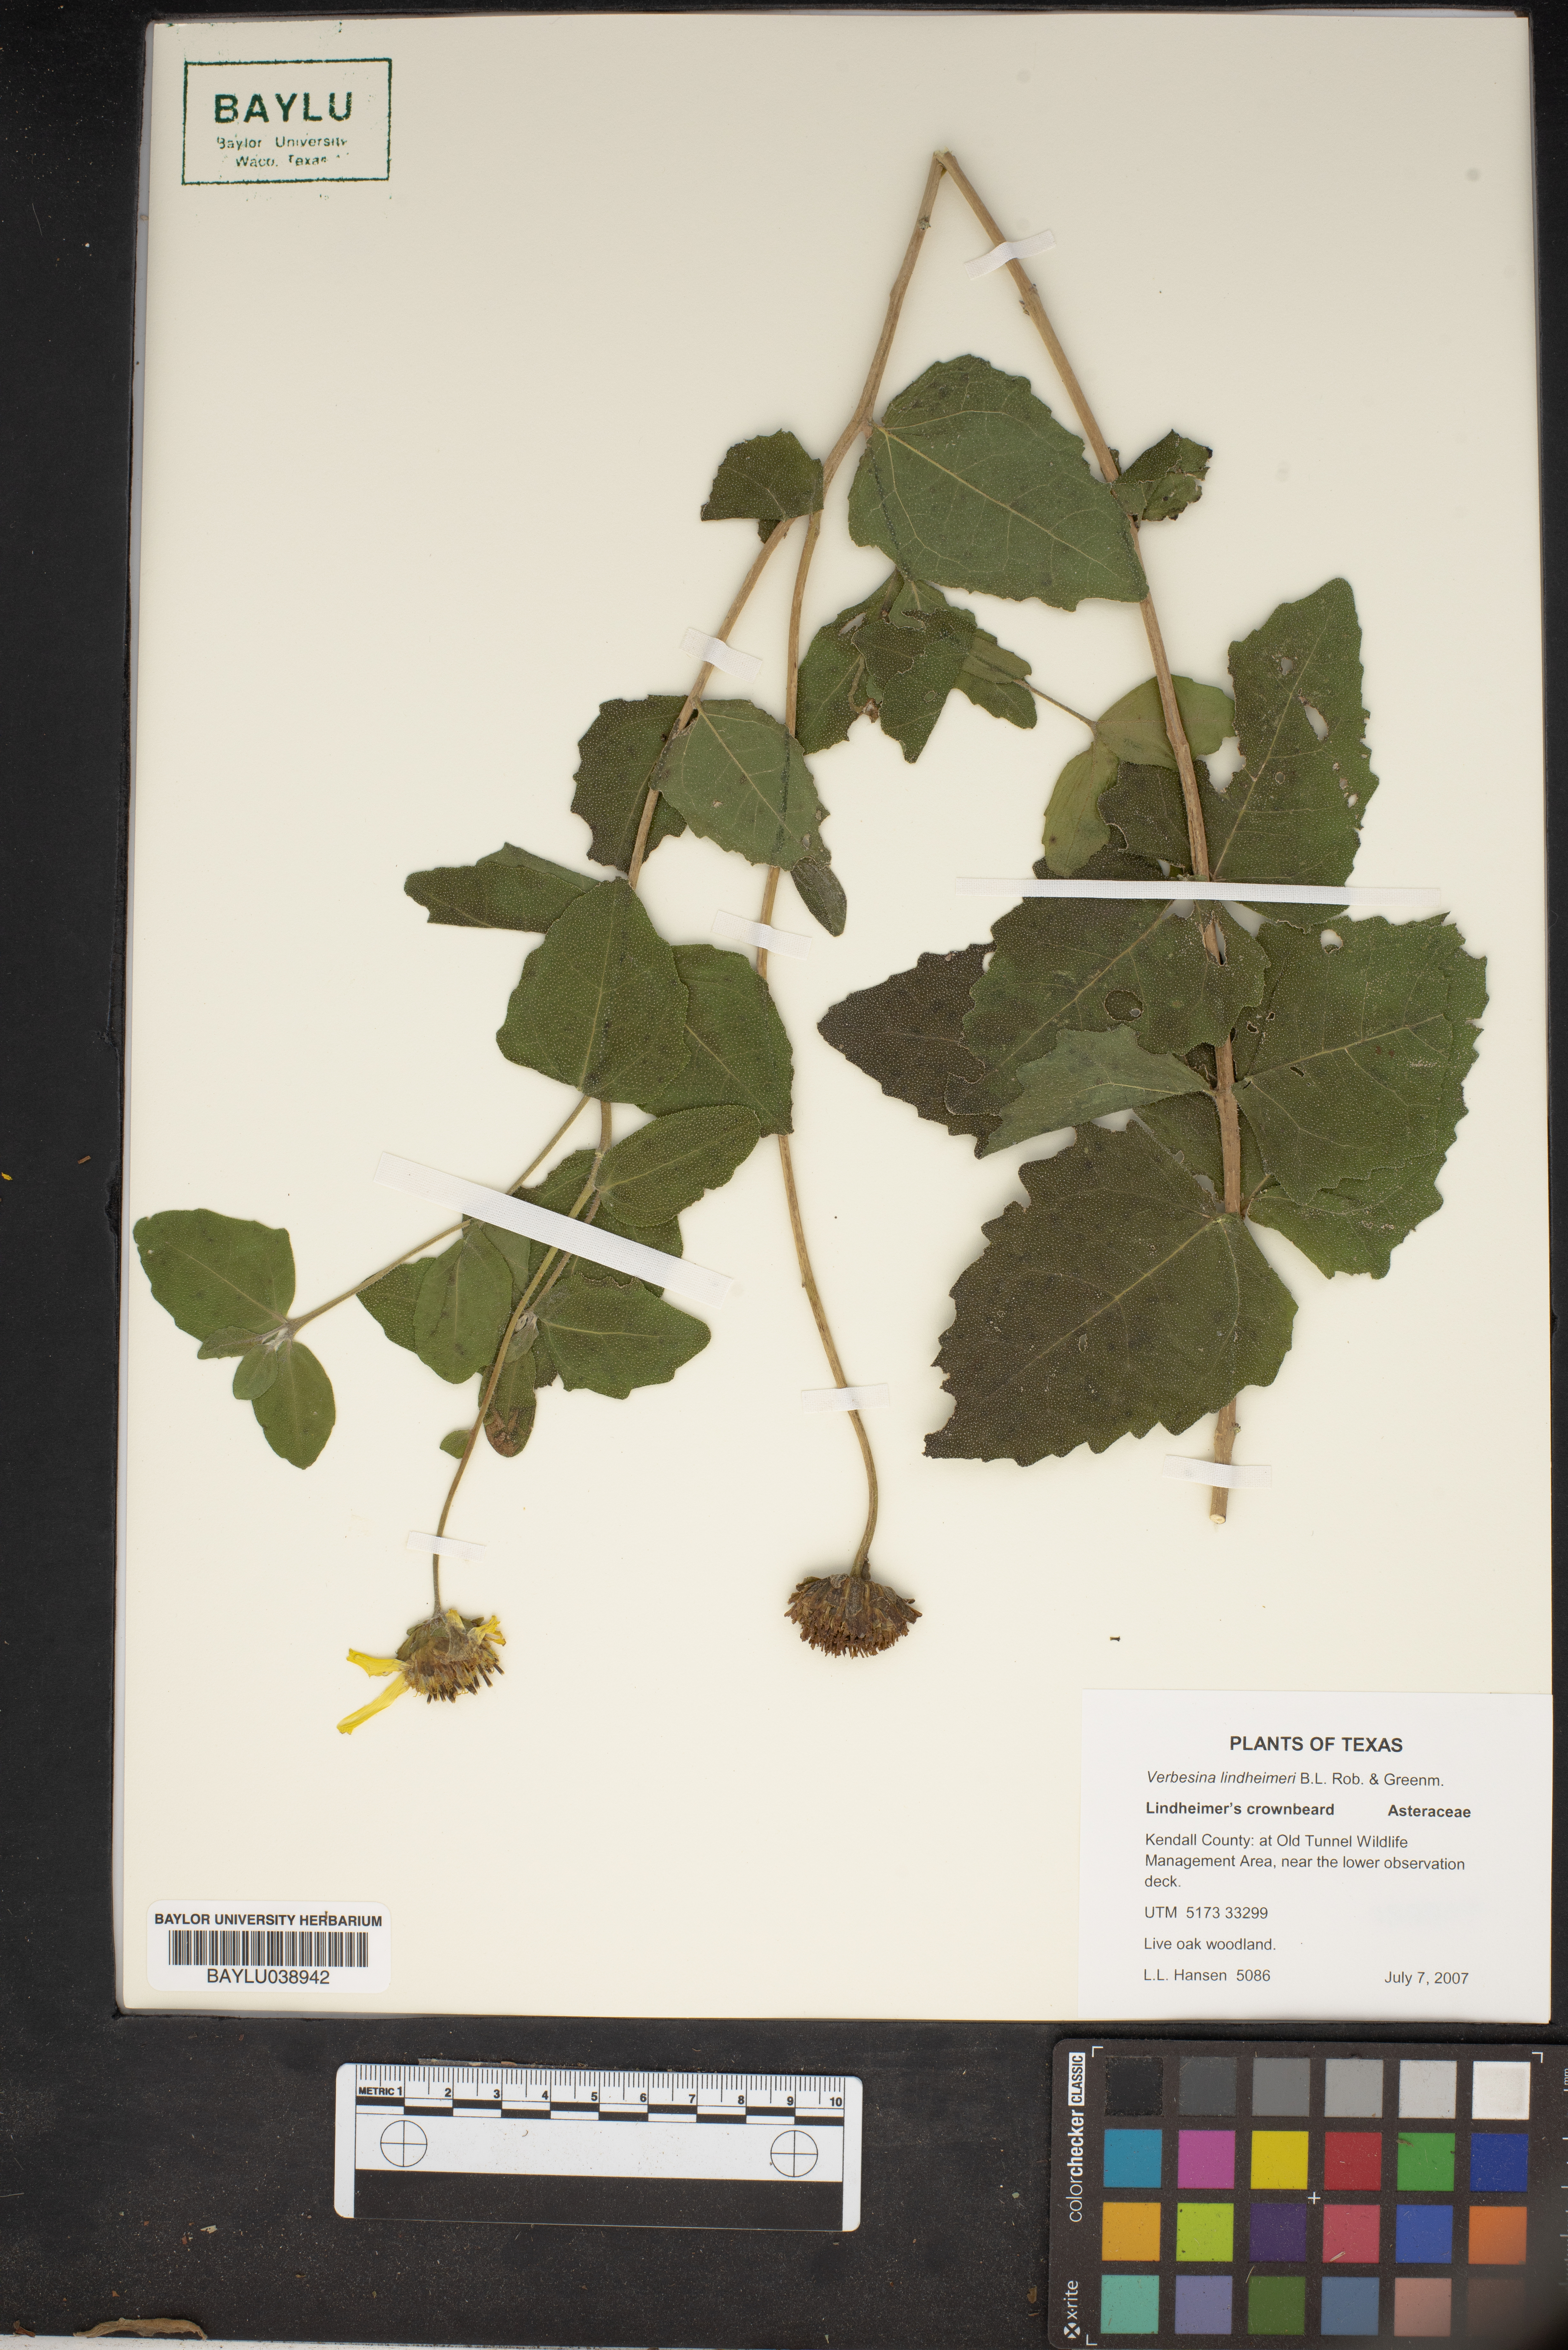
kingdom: Plantae
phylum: Tracheophyta
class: Magnoliopsida
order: Asterales
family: Asteraceae
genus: Verbesina
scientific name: Verbesina lindheimeri
